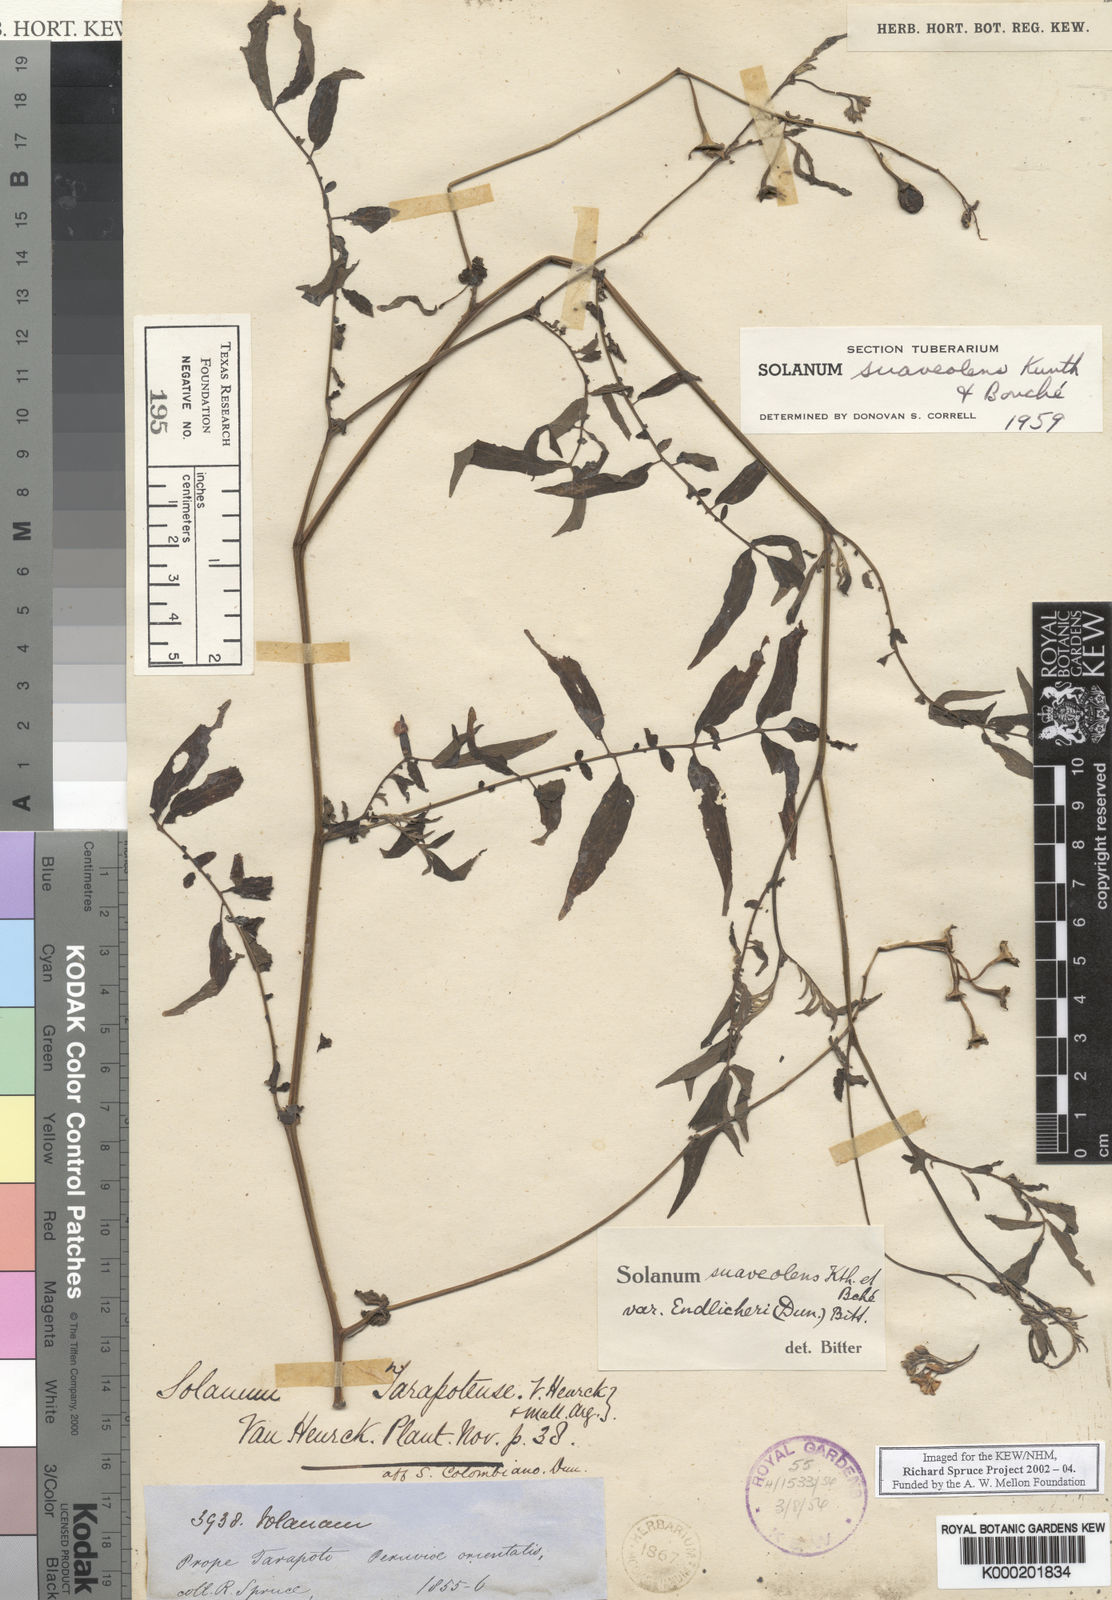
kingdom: Plantae
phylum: Tracheophyta
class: Magnoliopsida
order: Solanales
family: Solanaceae
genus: Solanum
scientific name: Solanum
